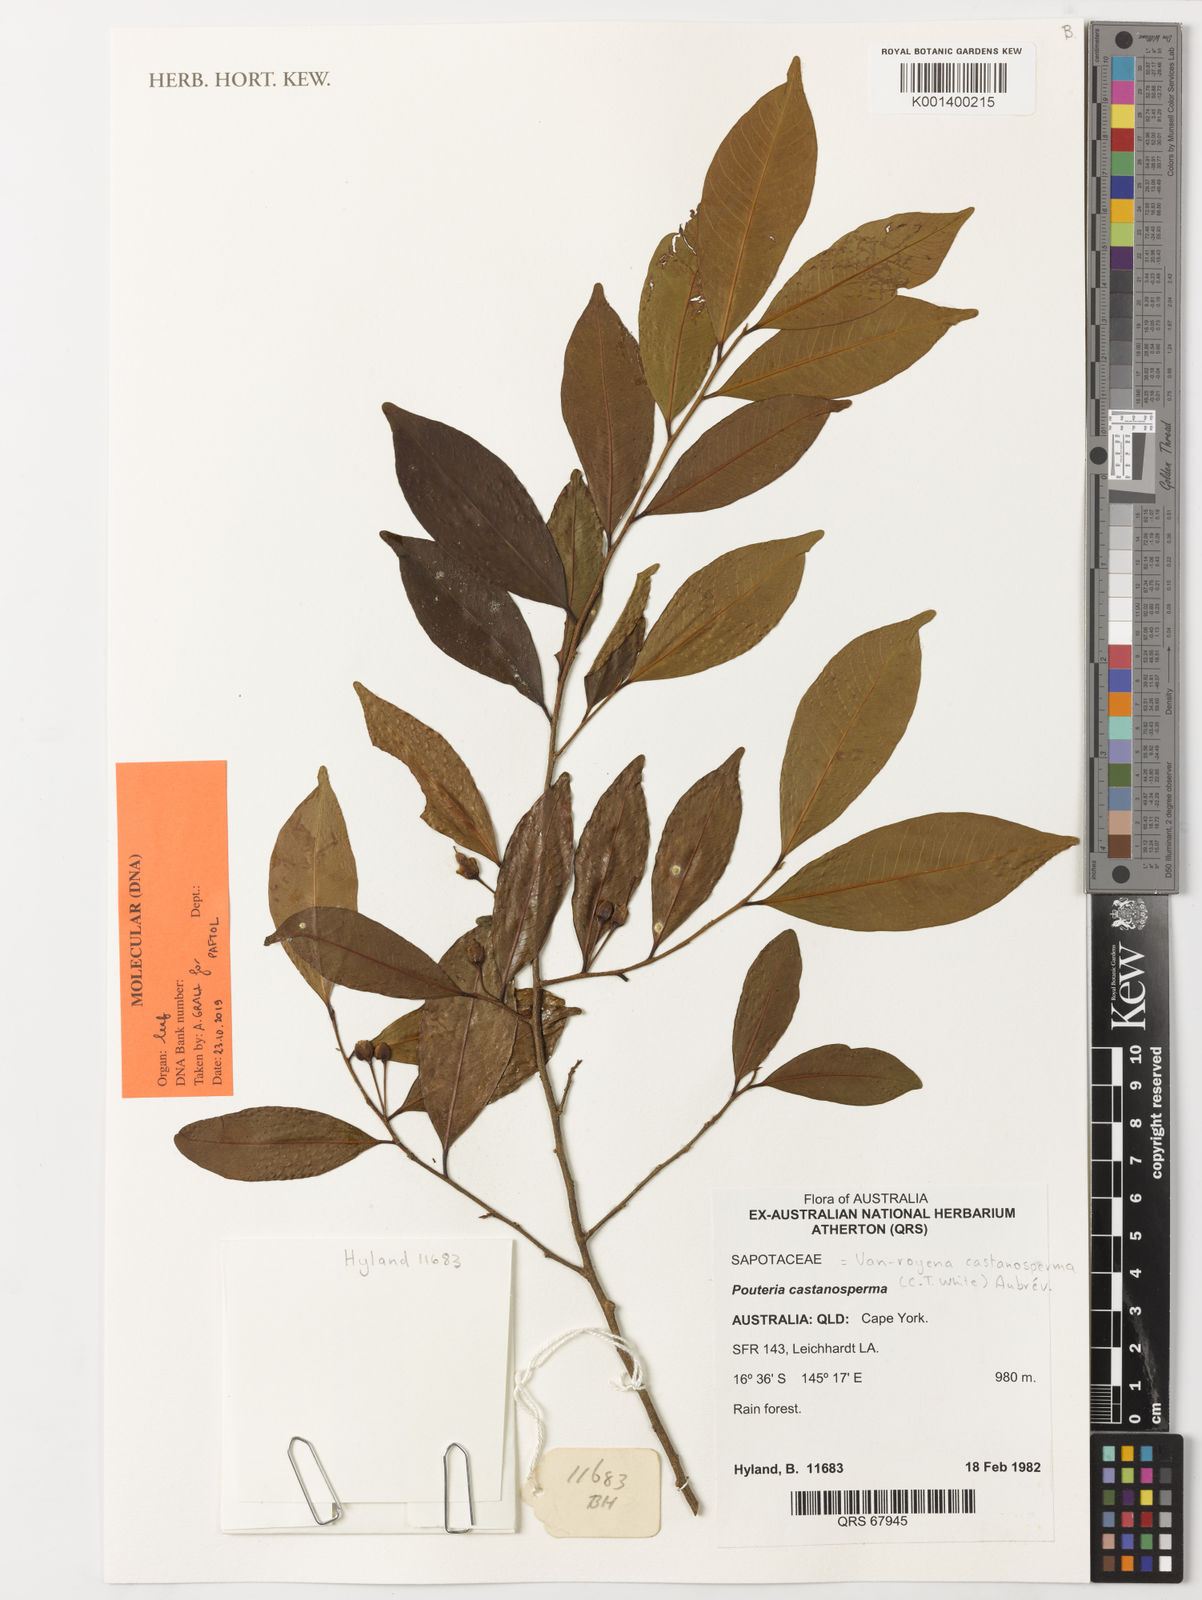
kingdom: Plantae
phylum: Tracheophyta
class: Magnoliopsida
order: Ericales
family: Sapotaceae
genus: Pouteria
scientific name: Pouteria
